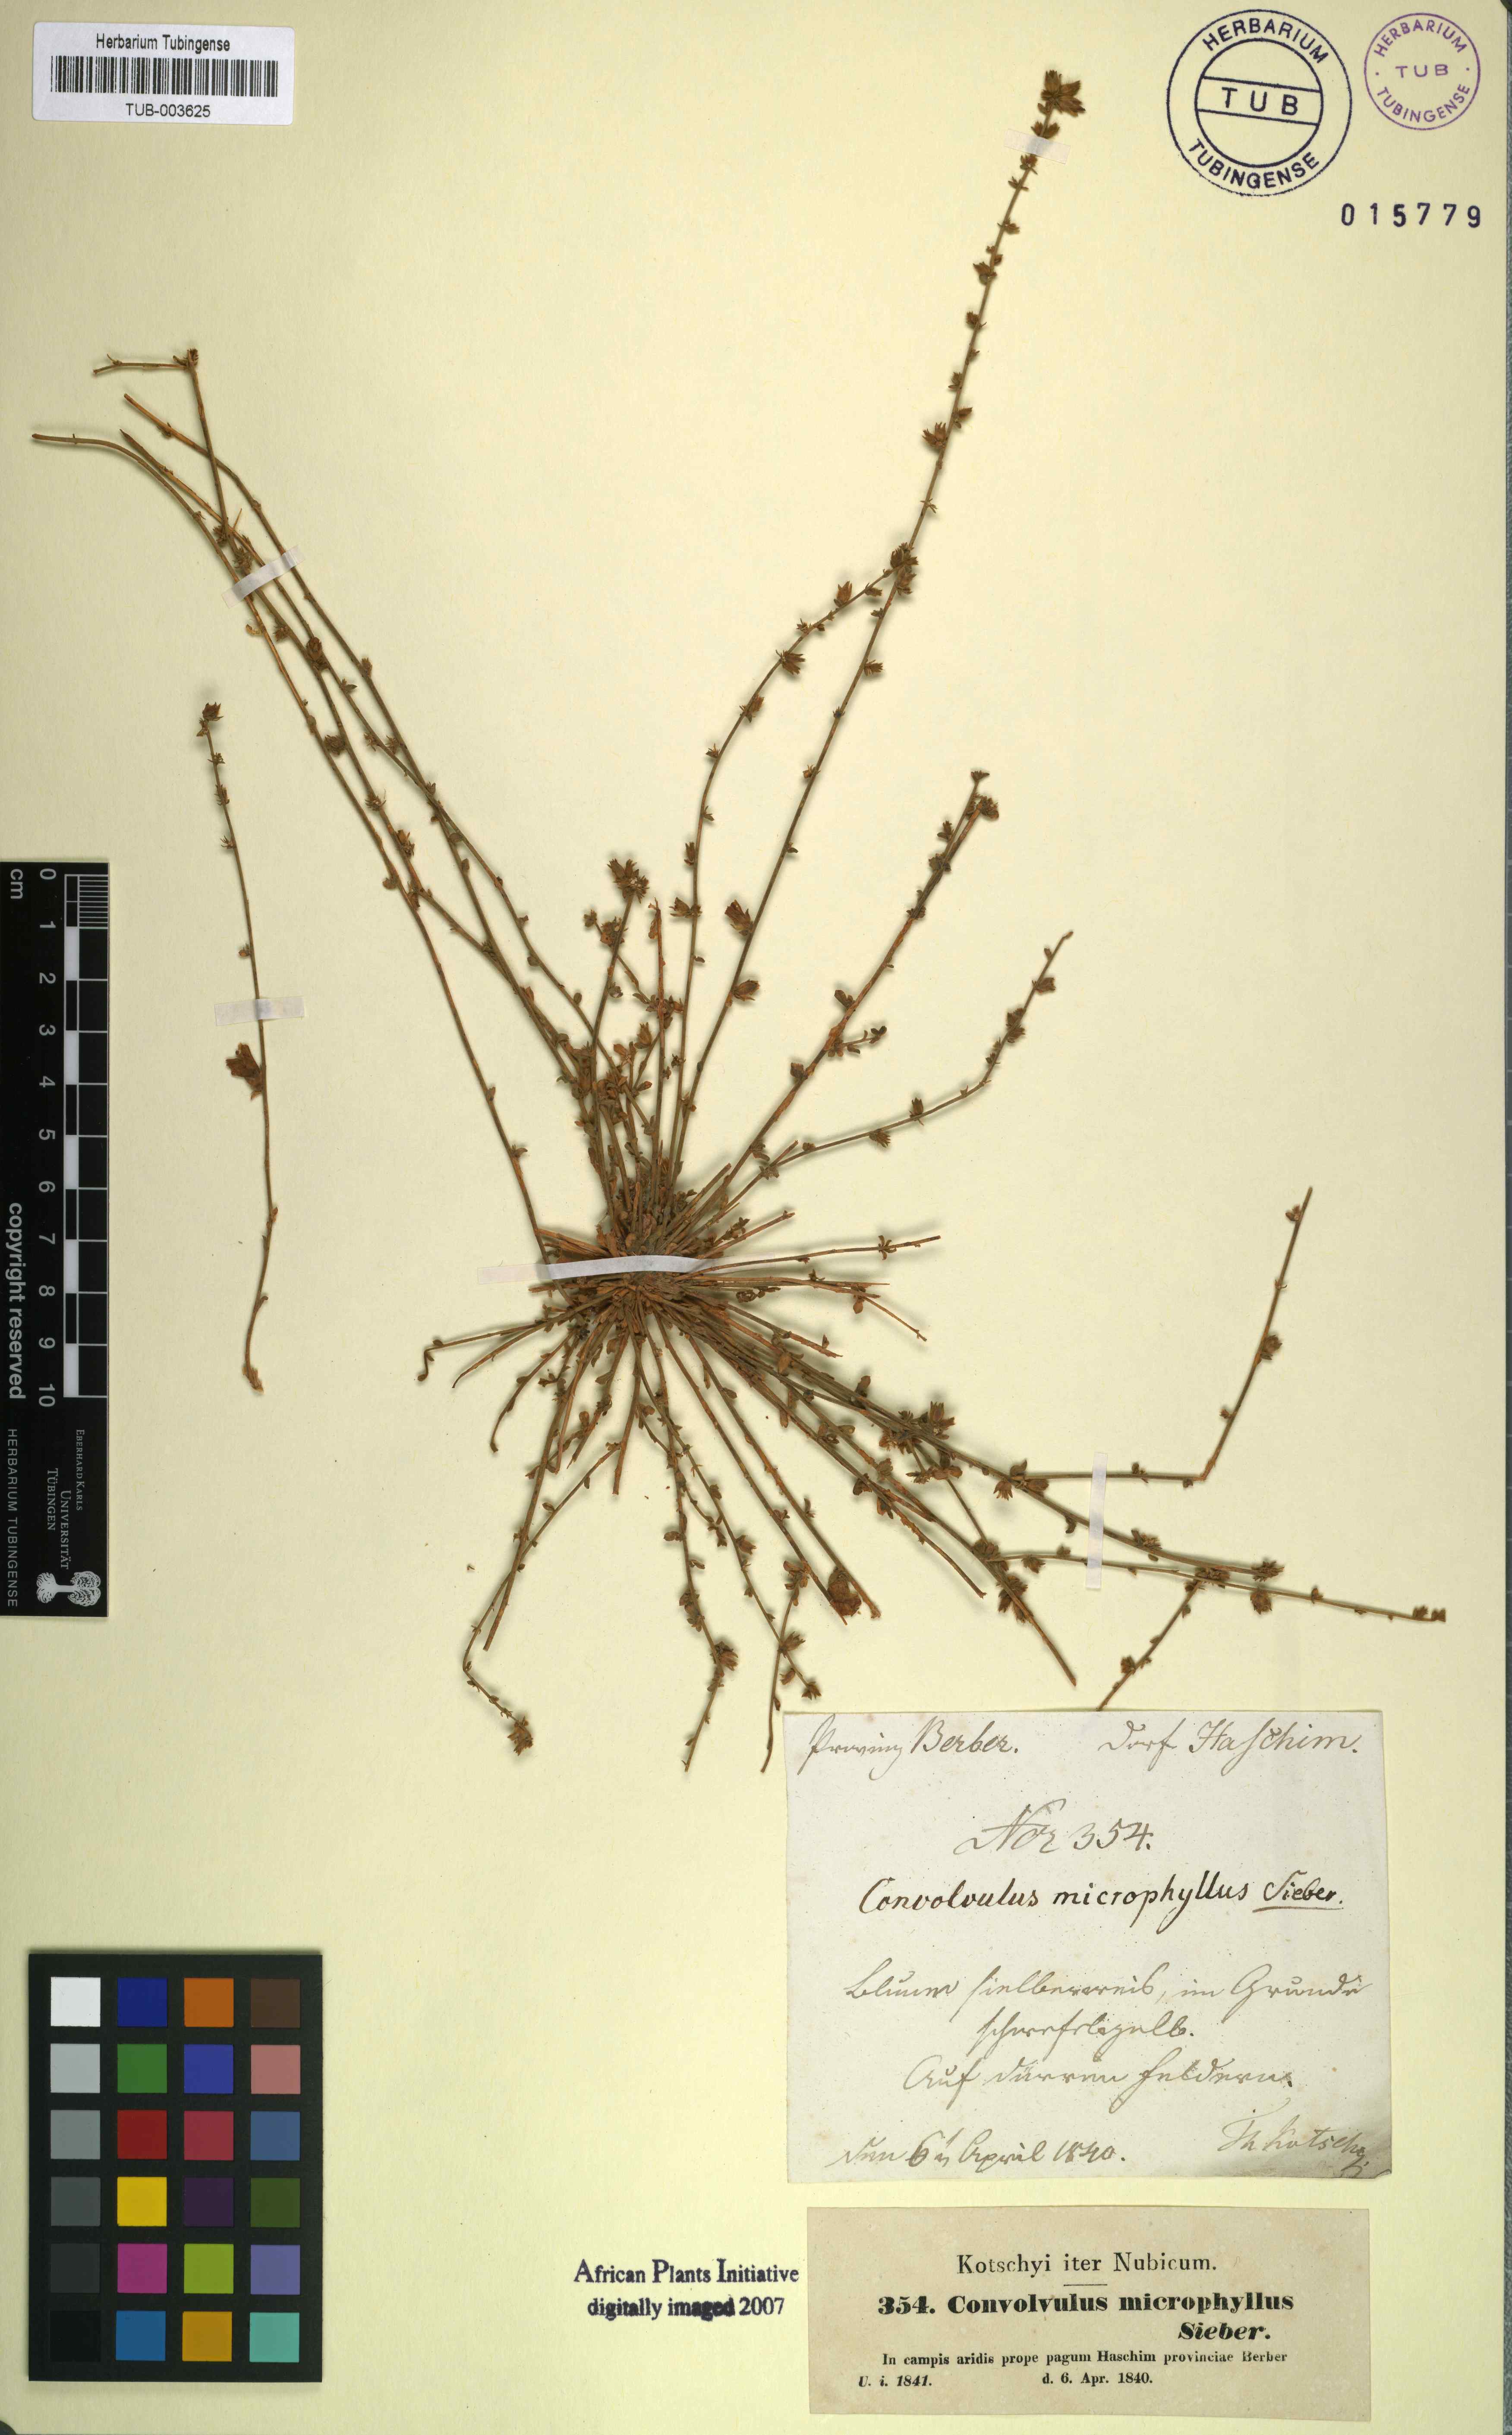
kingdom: Plantae
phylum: Tracheophyta
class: Magnoliopsida
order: Solanales
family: Convolvulaceae
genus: Convolvulus
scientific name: Convolvulus prostratus
